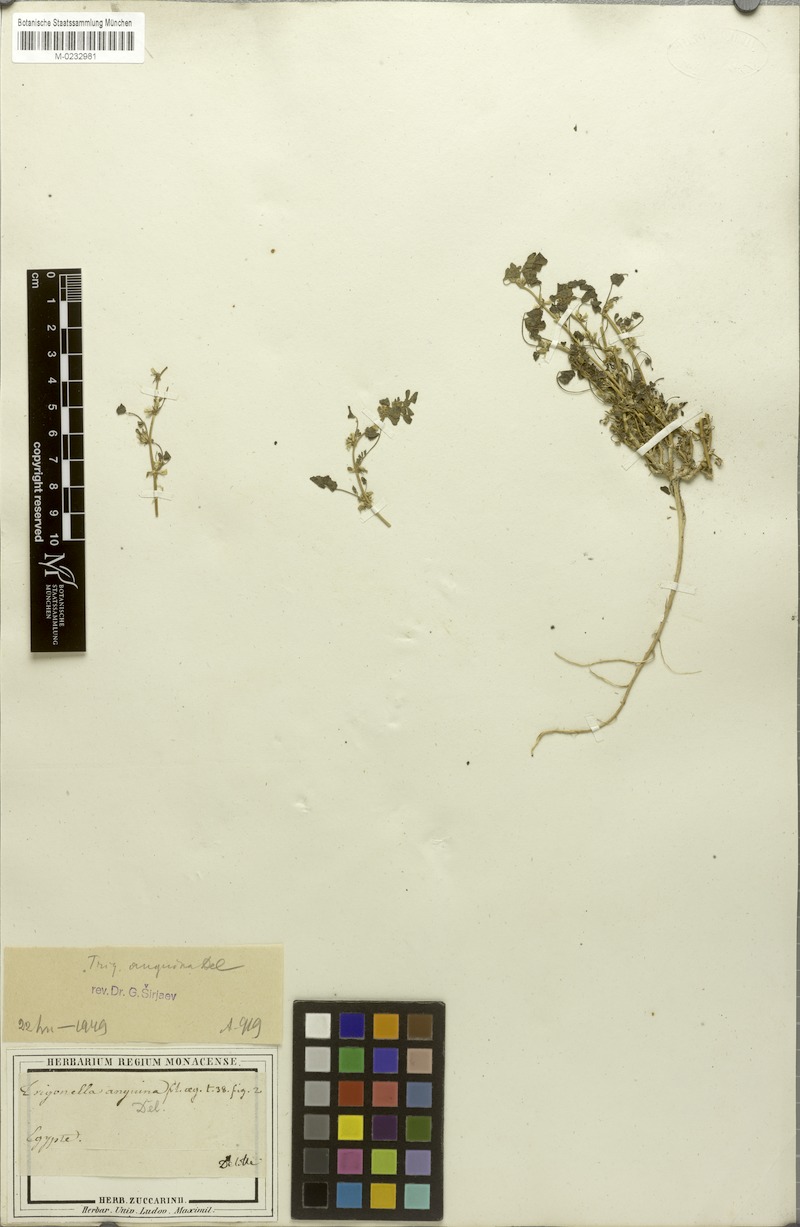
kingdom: Plantae
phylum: Tracheophyta
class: Magnoliopsida
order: Fabales
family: Fabaceae
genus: Trigonella
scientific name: Trigonella anguina
